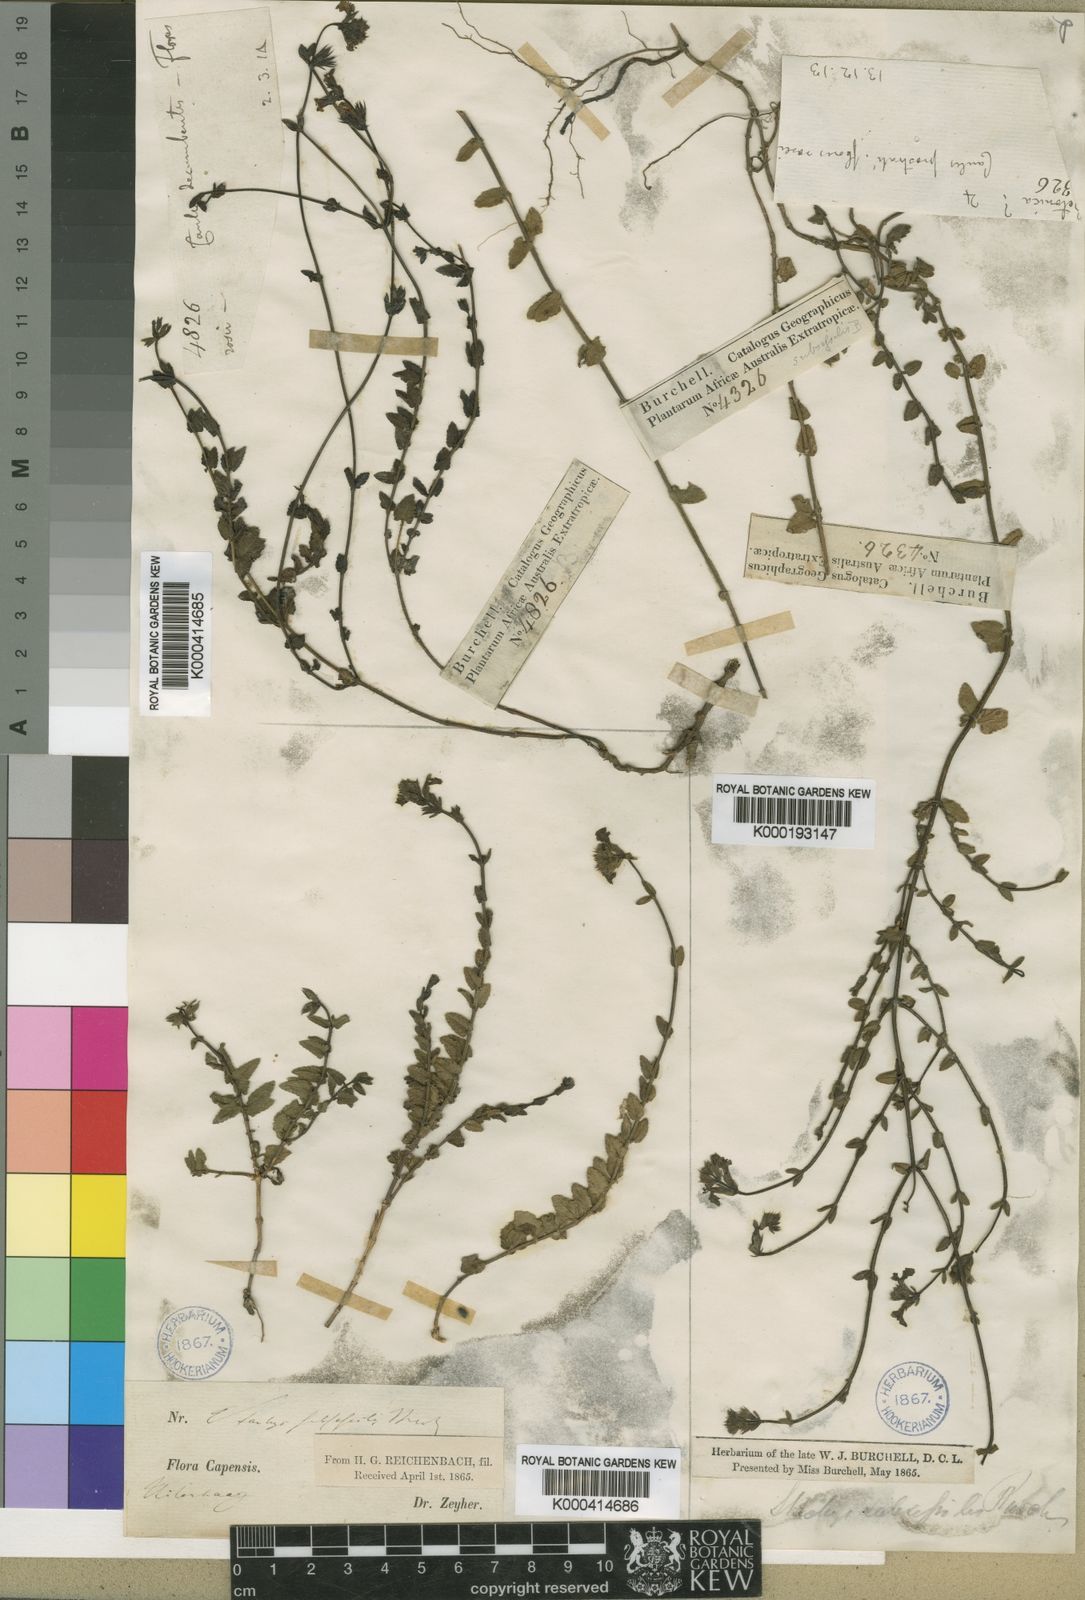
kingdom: Plantae
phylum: Tracheophyta
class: Magnoliopsida
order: Lamiales
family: Lamiaceae
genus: Stachys
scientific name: Stachys humifusa
